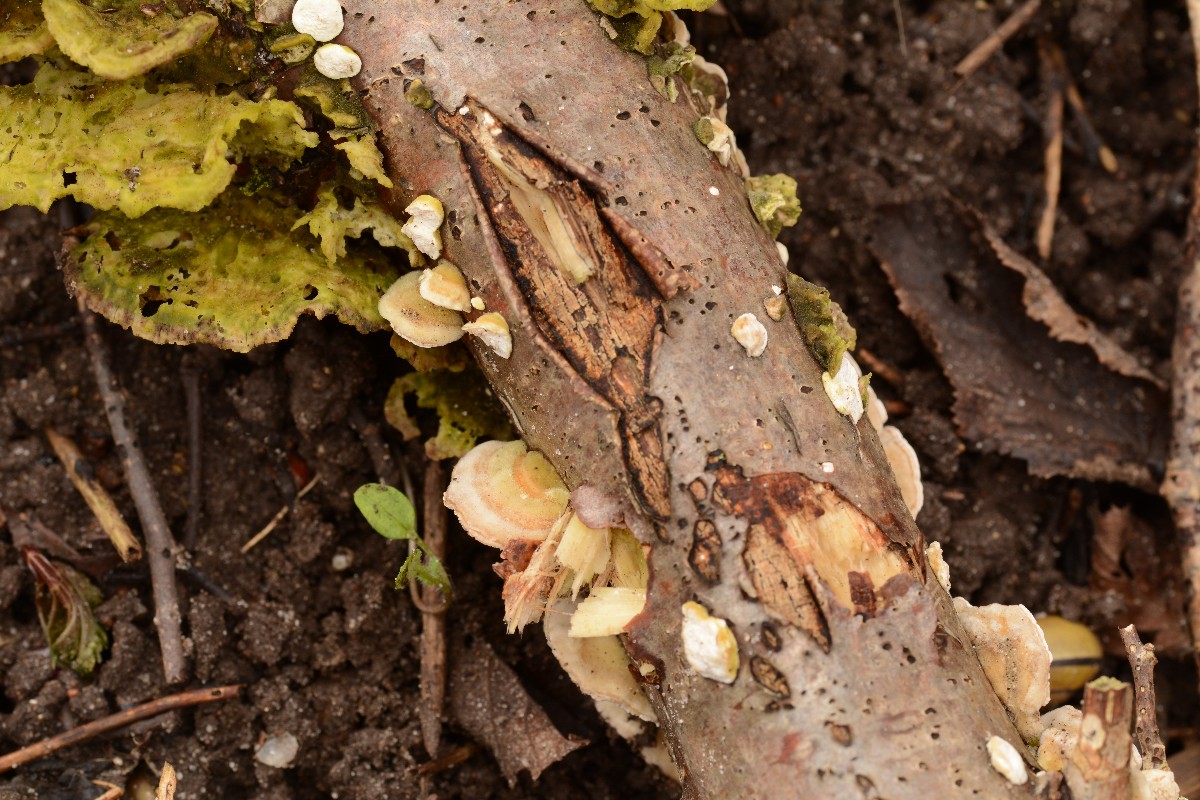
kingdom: Fungi
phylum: Basidiomycota
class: Agaricomycetes
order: Polyporales
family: Polyporaceae
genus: Trametes
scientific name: Trametes ochracea
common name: bæltet læderporesvamp
